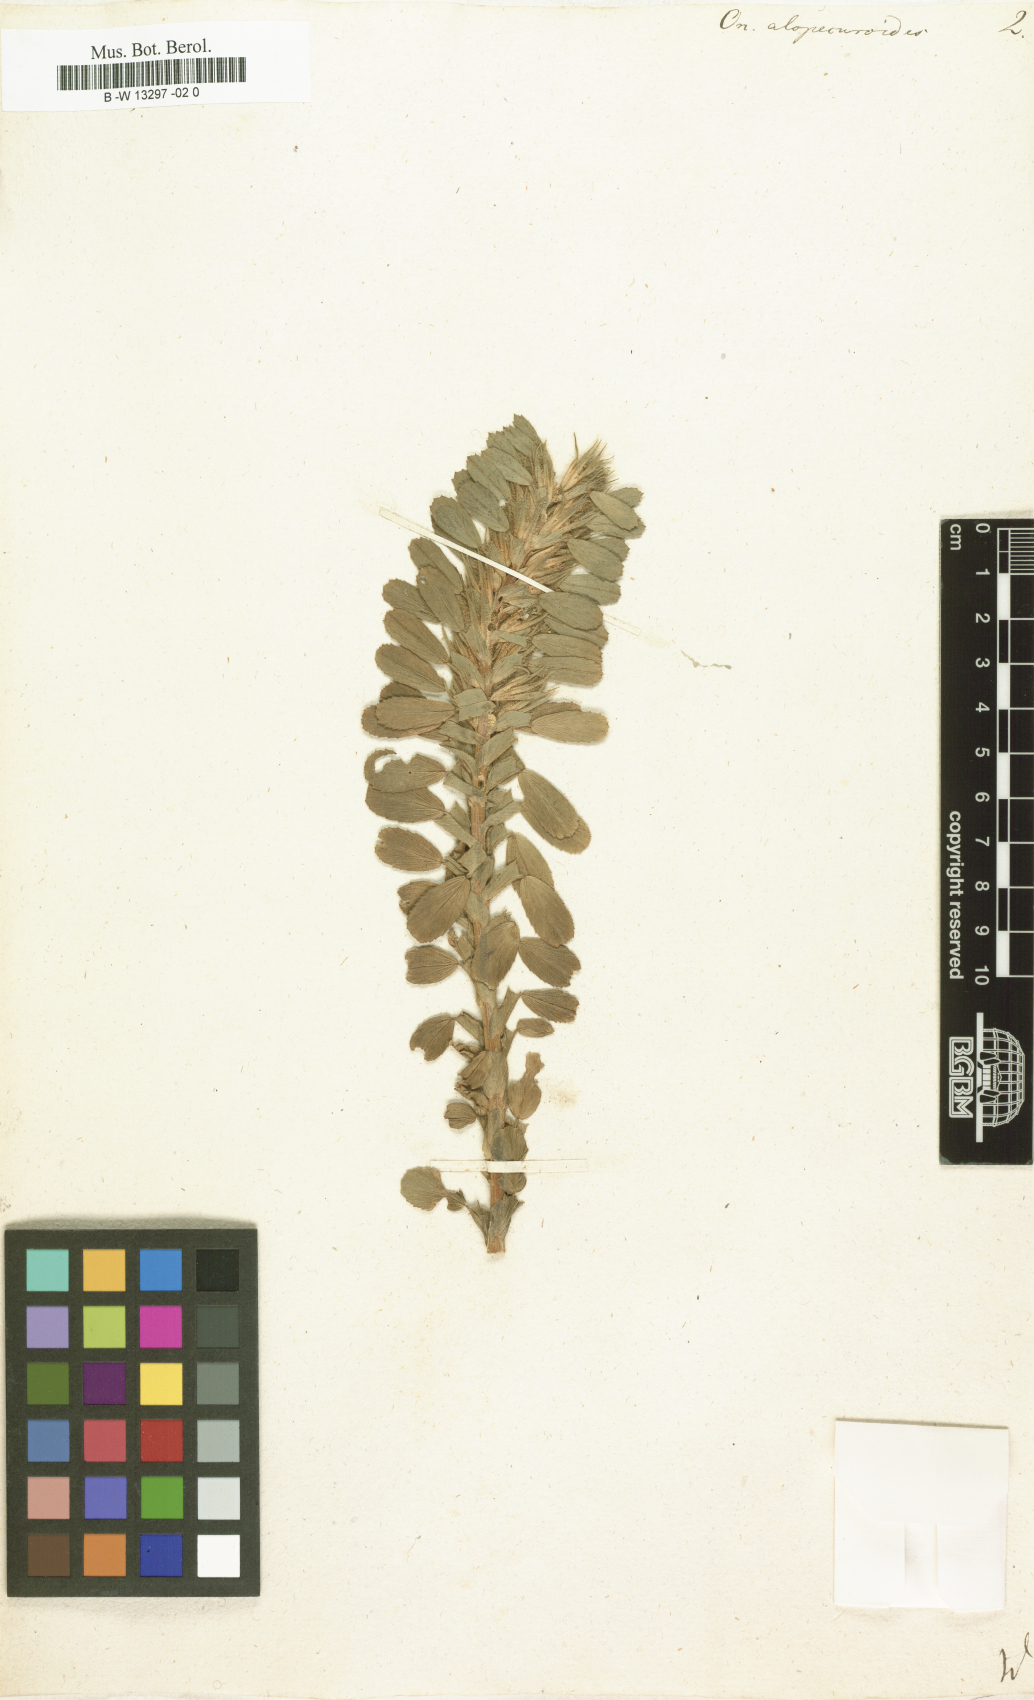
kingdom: Plantae
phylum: Tracheophyta
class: Magnoliopsida
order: Fabales
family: Fabaceae
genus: Ononis
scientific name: Ononis arvensis
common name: Field restharrow
